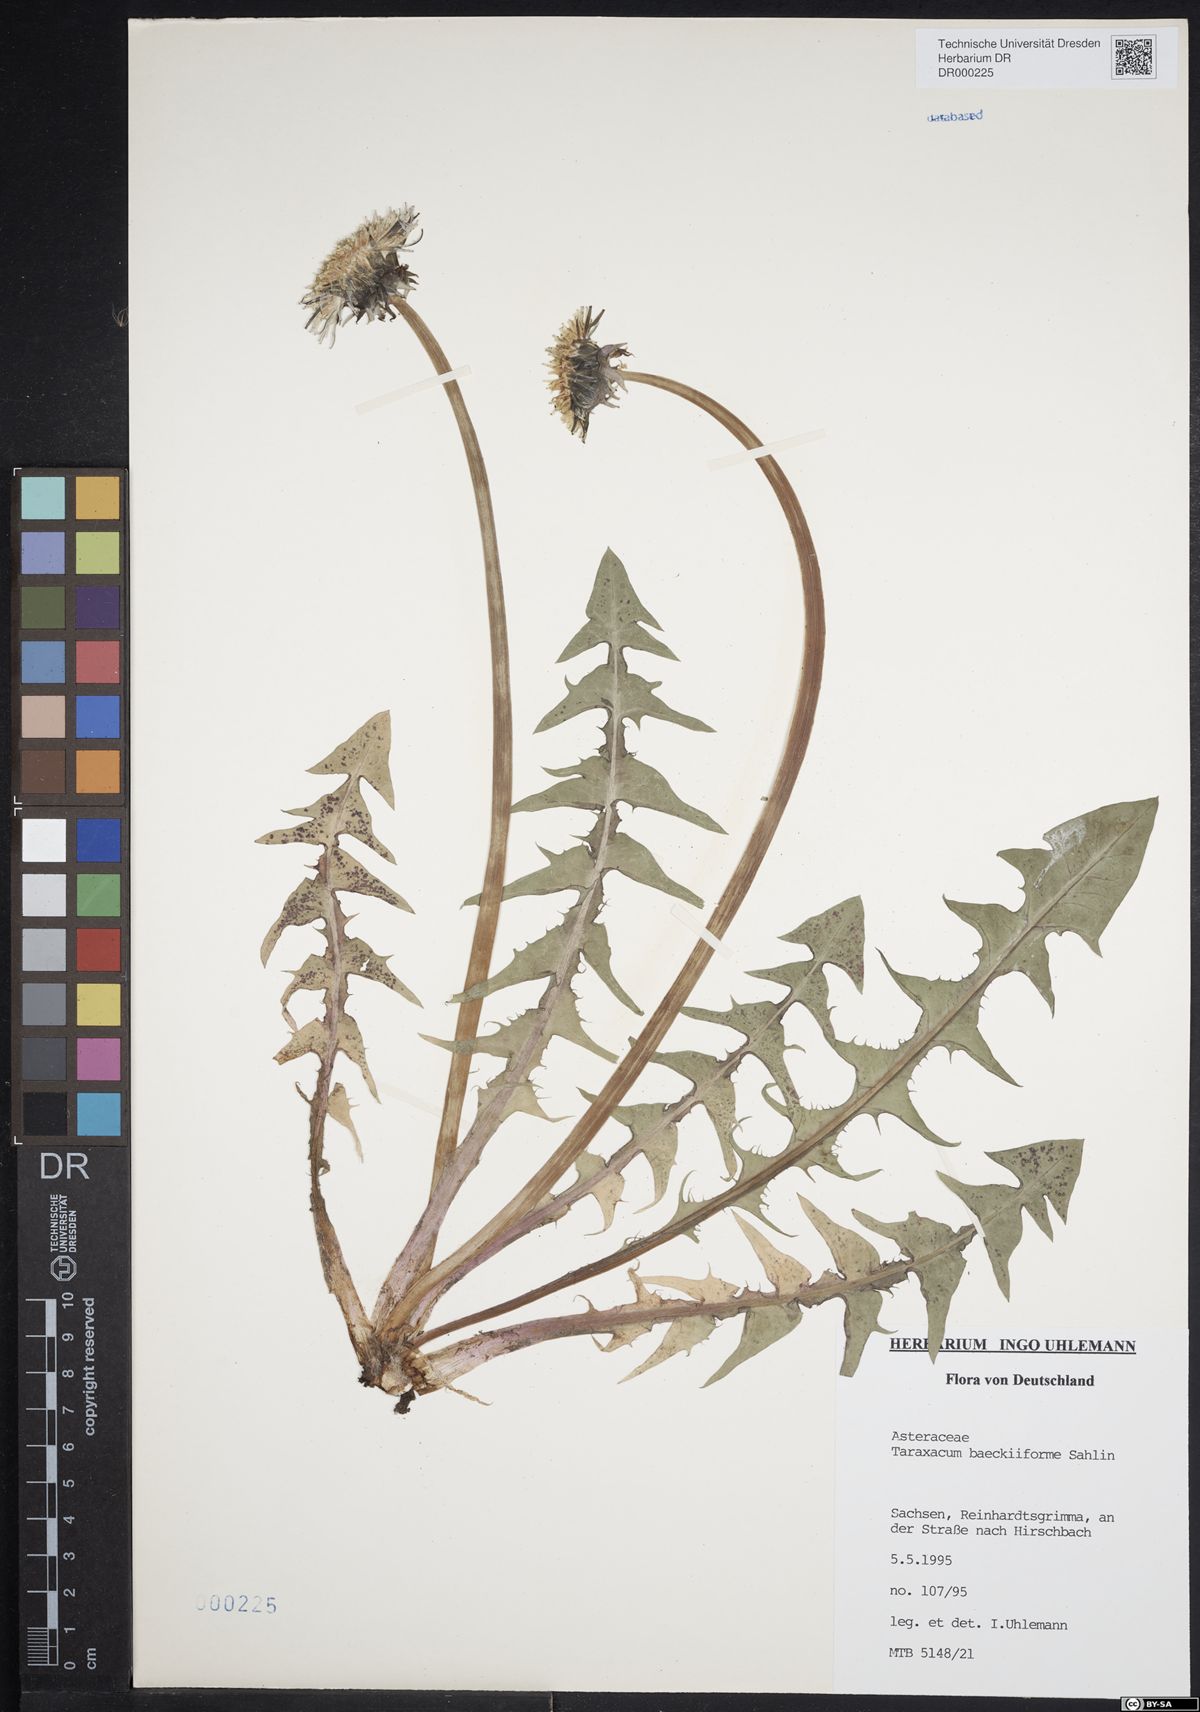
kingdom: Plantae
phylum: Tracheophyta
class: Magnoliopsida
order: Asterales
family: Asteraceae
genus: Taraxacum
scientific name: Taraxacum baeckiiforme
